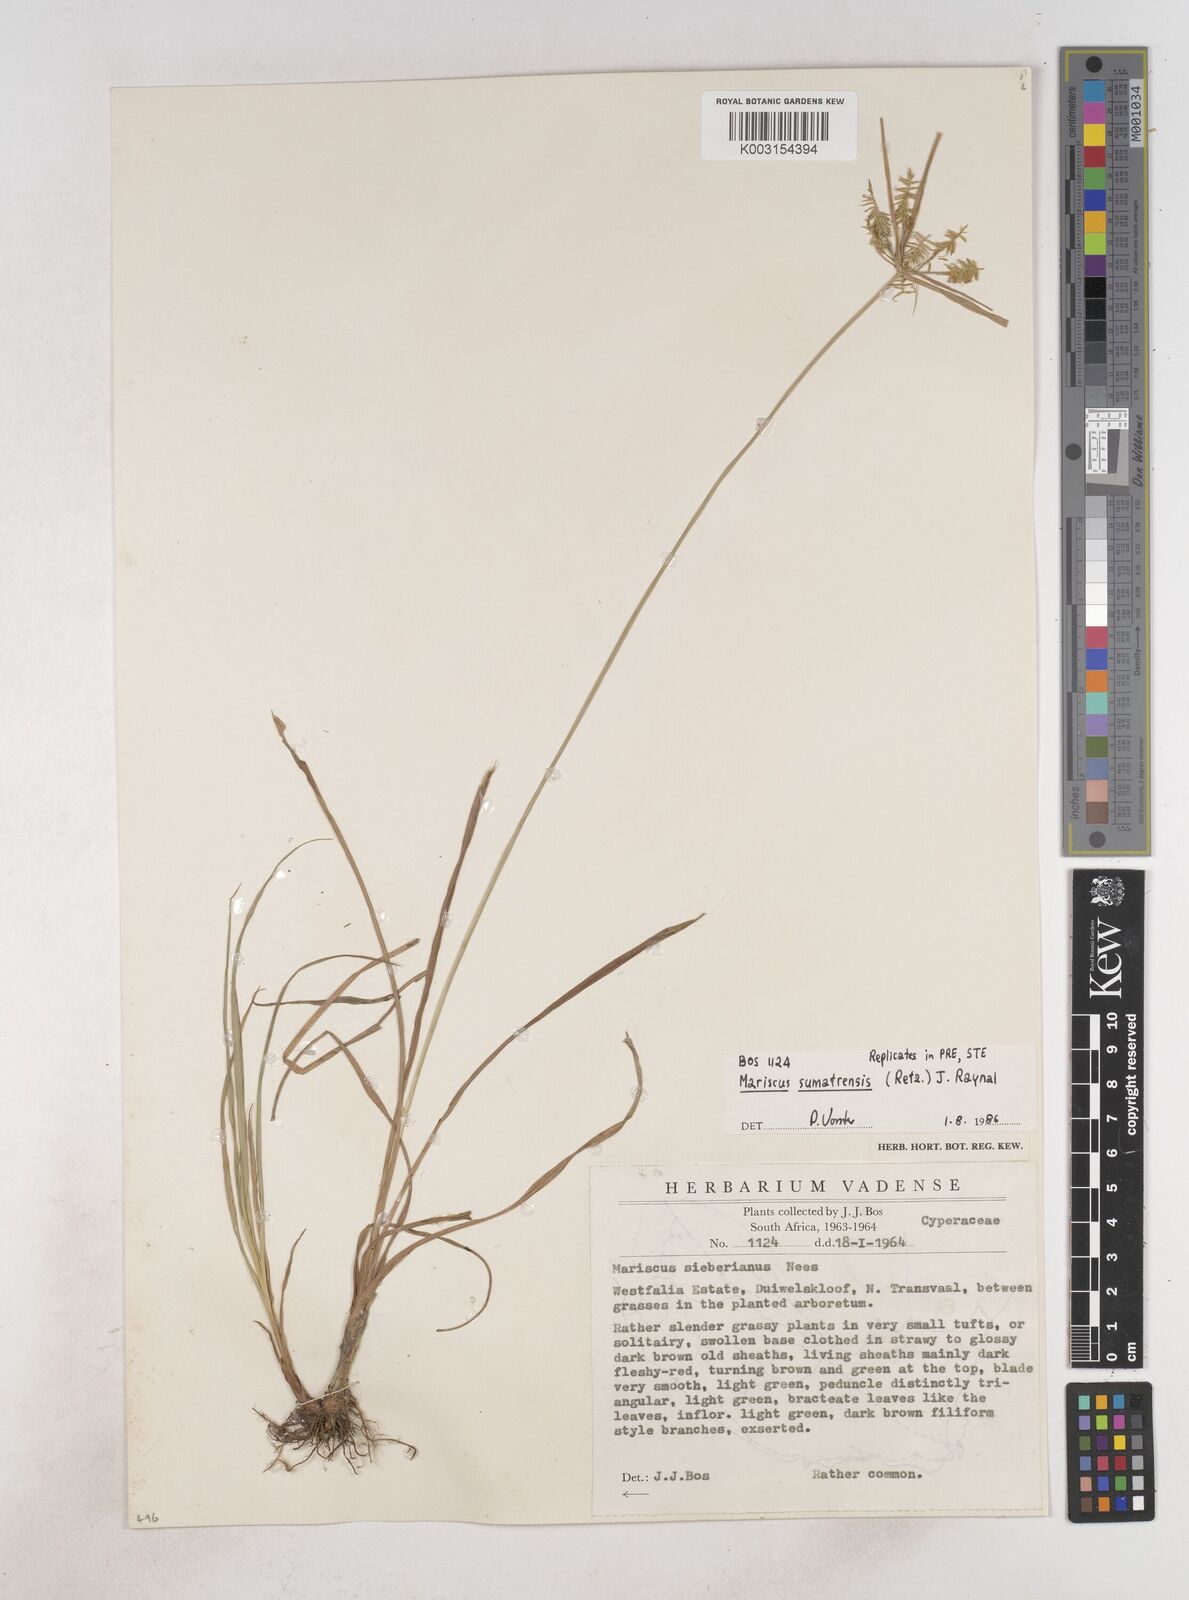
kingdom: Plantae
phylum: Tracheophyta
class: Liliopsida
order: Poales
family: Cyperaceae
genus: Cyperus
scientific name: Cyperus cyperoides
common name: Pacific island flat sedge
